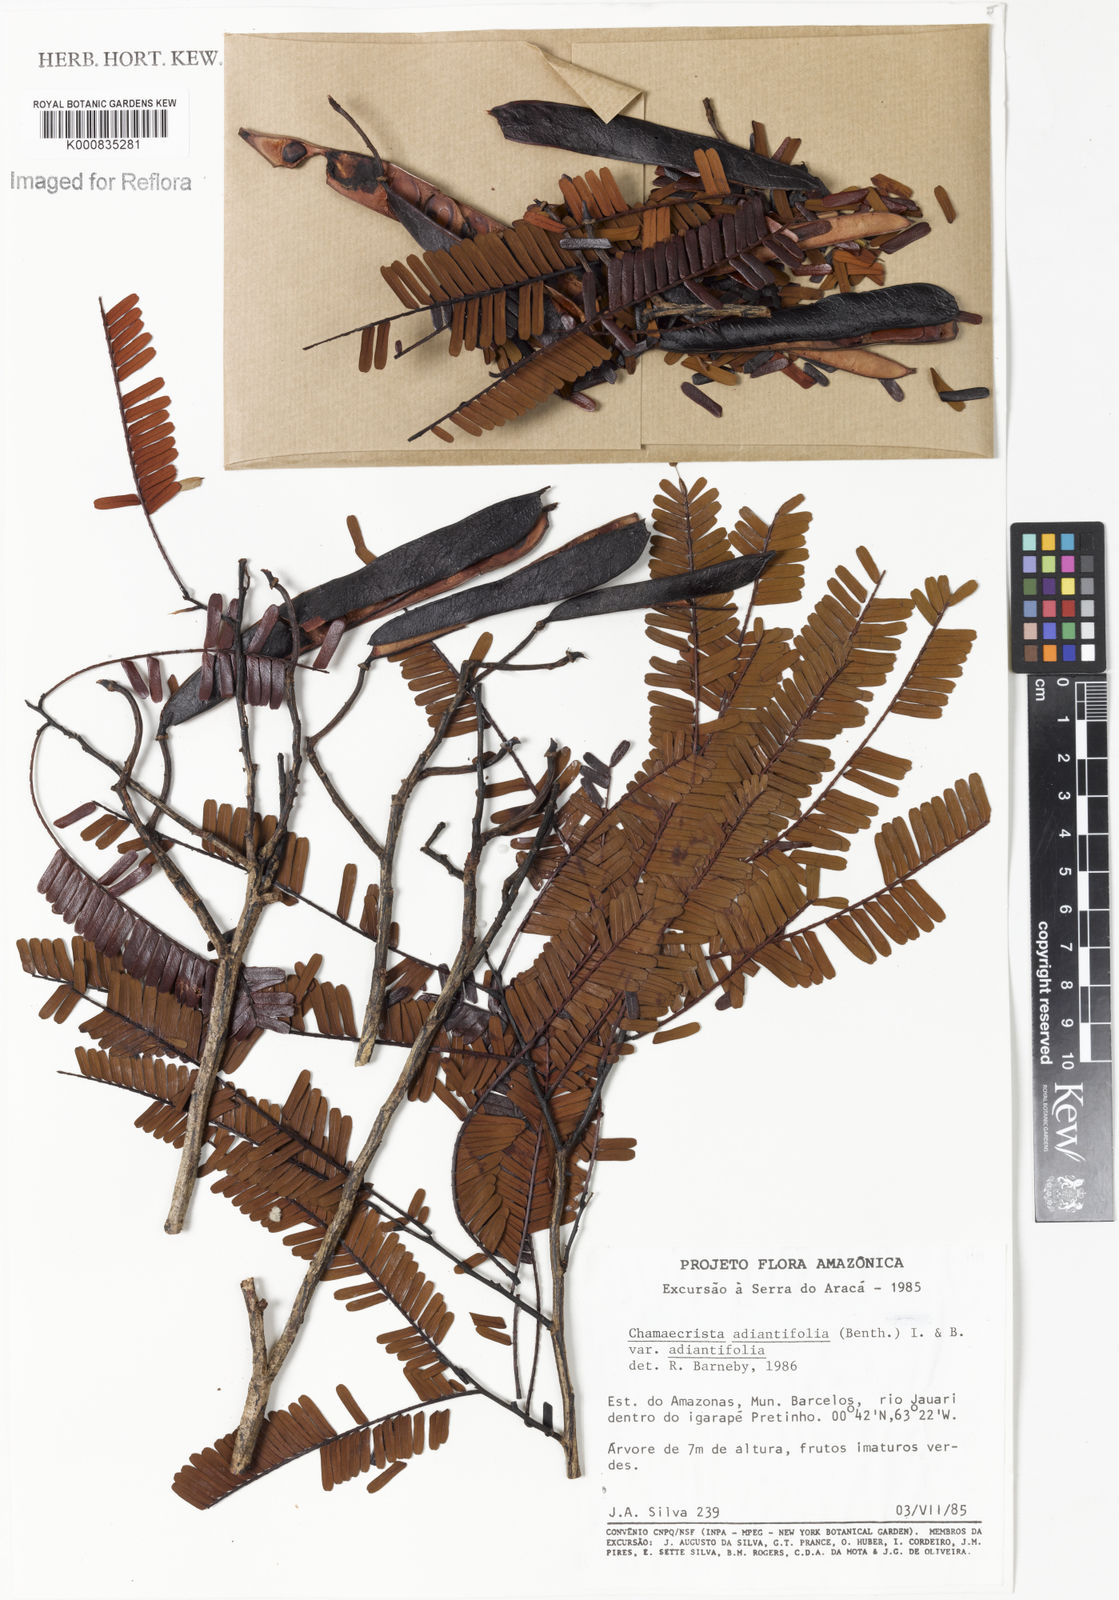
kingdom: Plantae
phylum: Tracheophyta
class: Magnoliopsida
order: Fabales
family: Fabaceae
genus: Chamaecrista
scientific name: Chamaecrista adiantifolia
